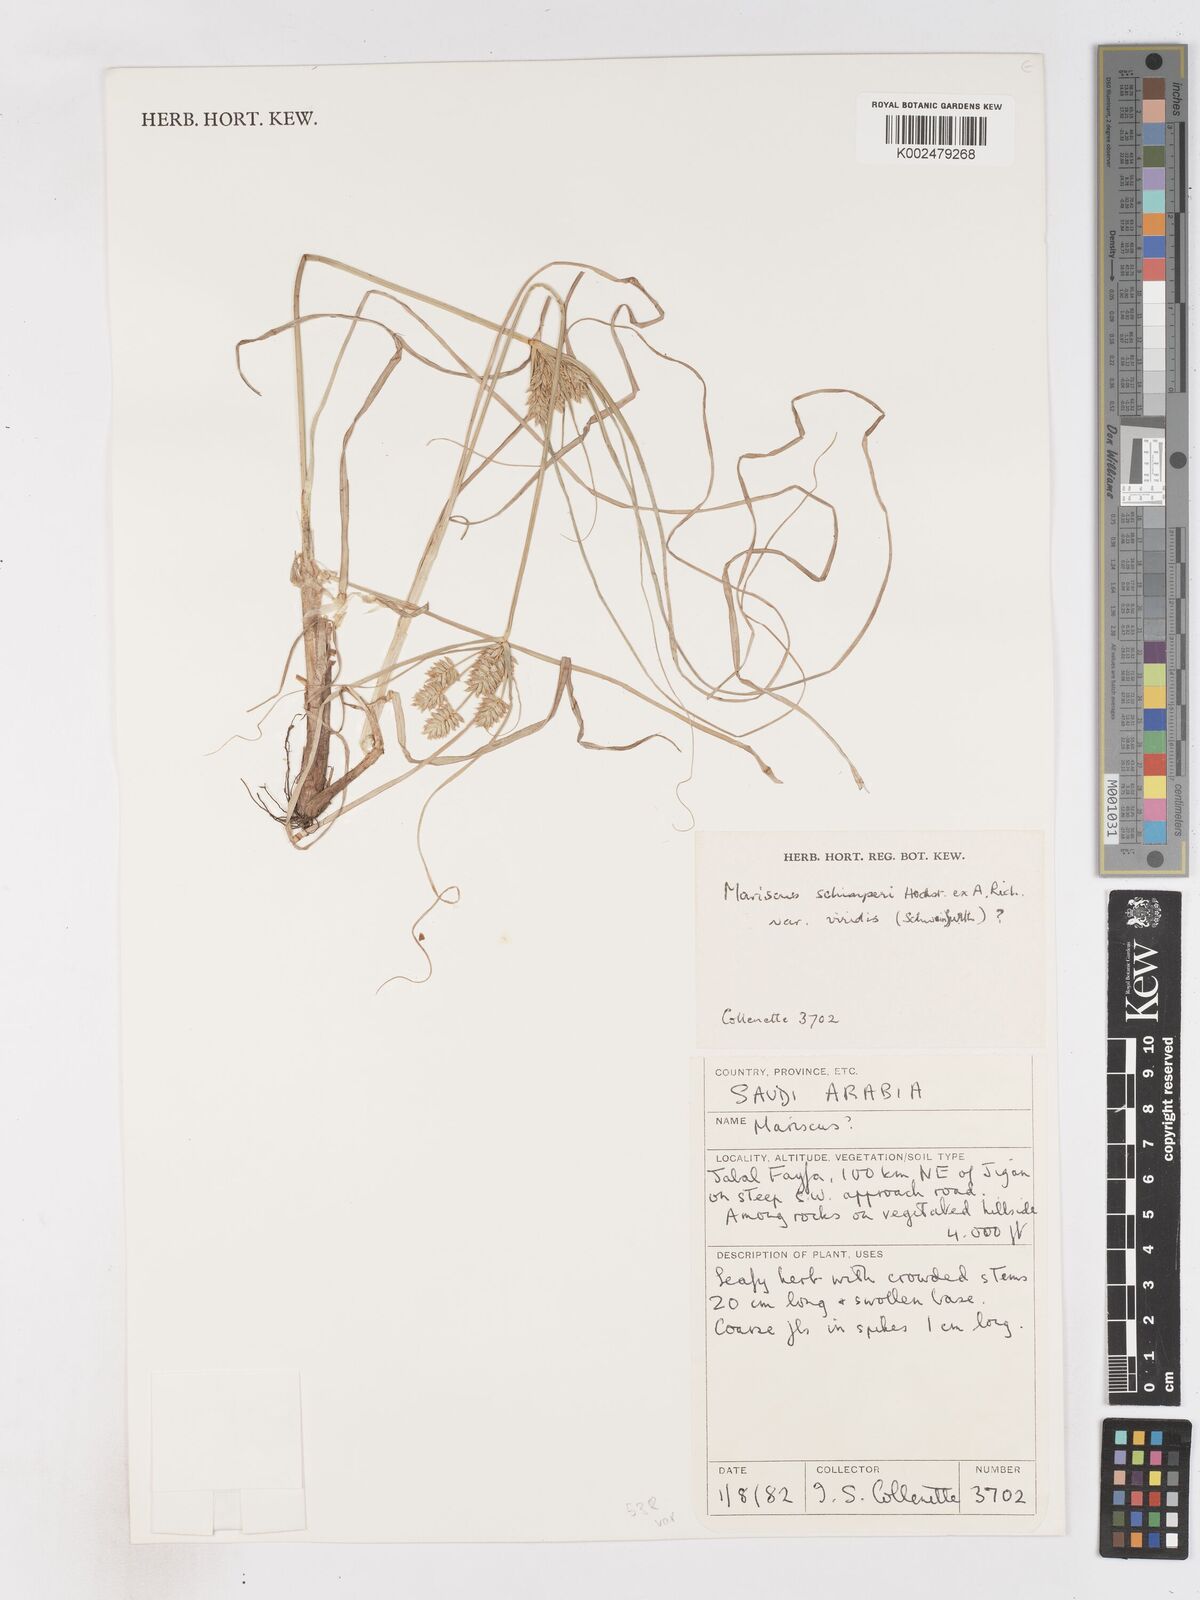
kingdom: Plantae
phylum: Tracheophyta
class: Liliopsida
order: Poales
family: Cyperaceae
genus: Cyperus
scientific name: Cyperus cruentus
